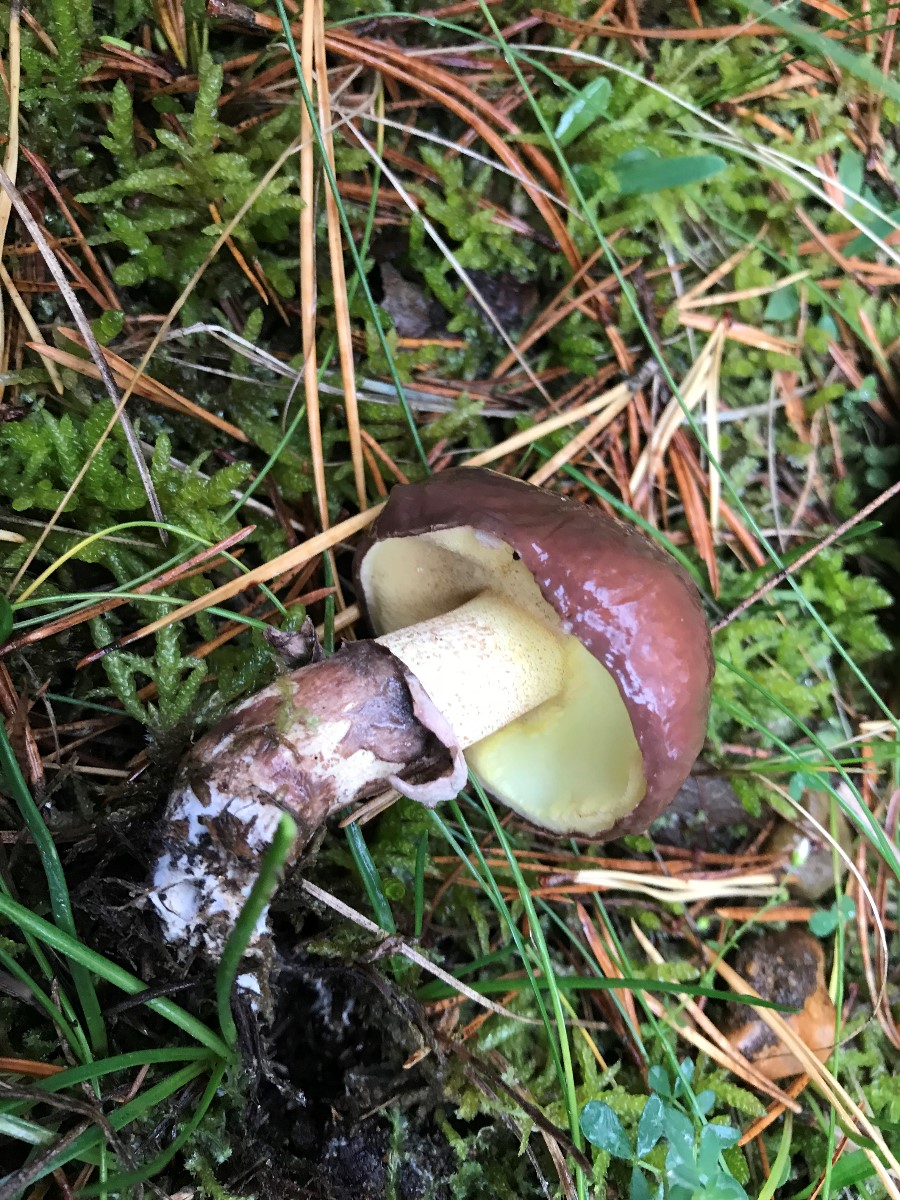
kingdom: Fungi
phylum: Basidiomycota
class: Agaricomycetes
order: Boletales
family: Suillaceae
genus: Suillus
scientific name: Suillus luteus
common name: brungul slimrørhat
